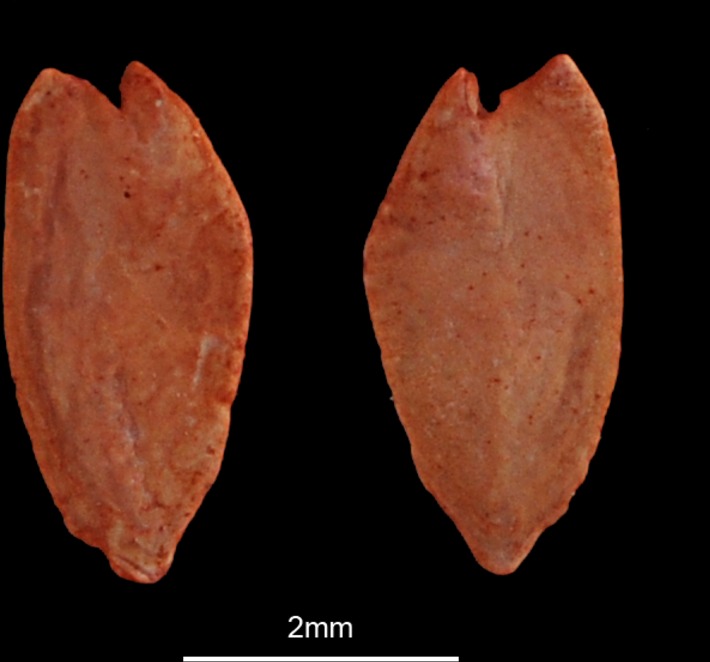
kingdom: Animalia
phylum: Chordata
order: Anguilliformes
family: Muraenidae
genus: Muraena
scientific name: Muraena helena
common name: Mediterranean moray
